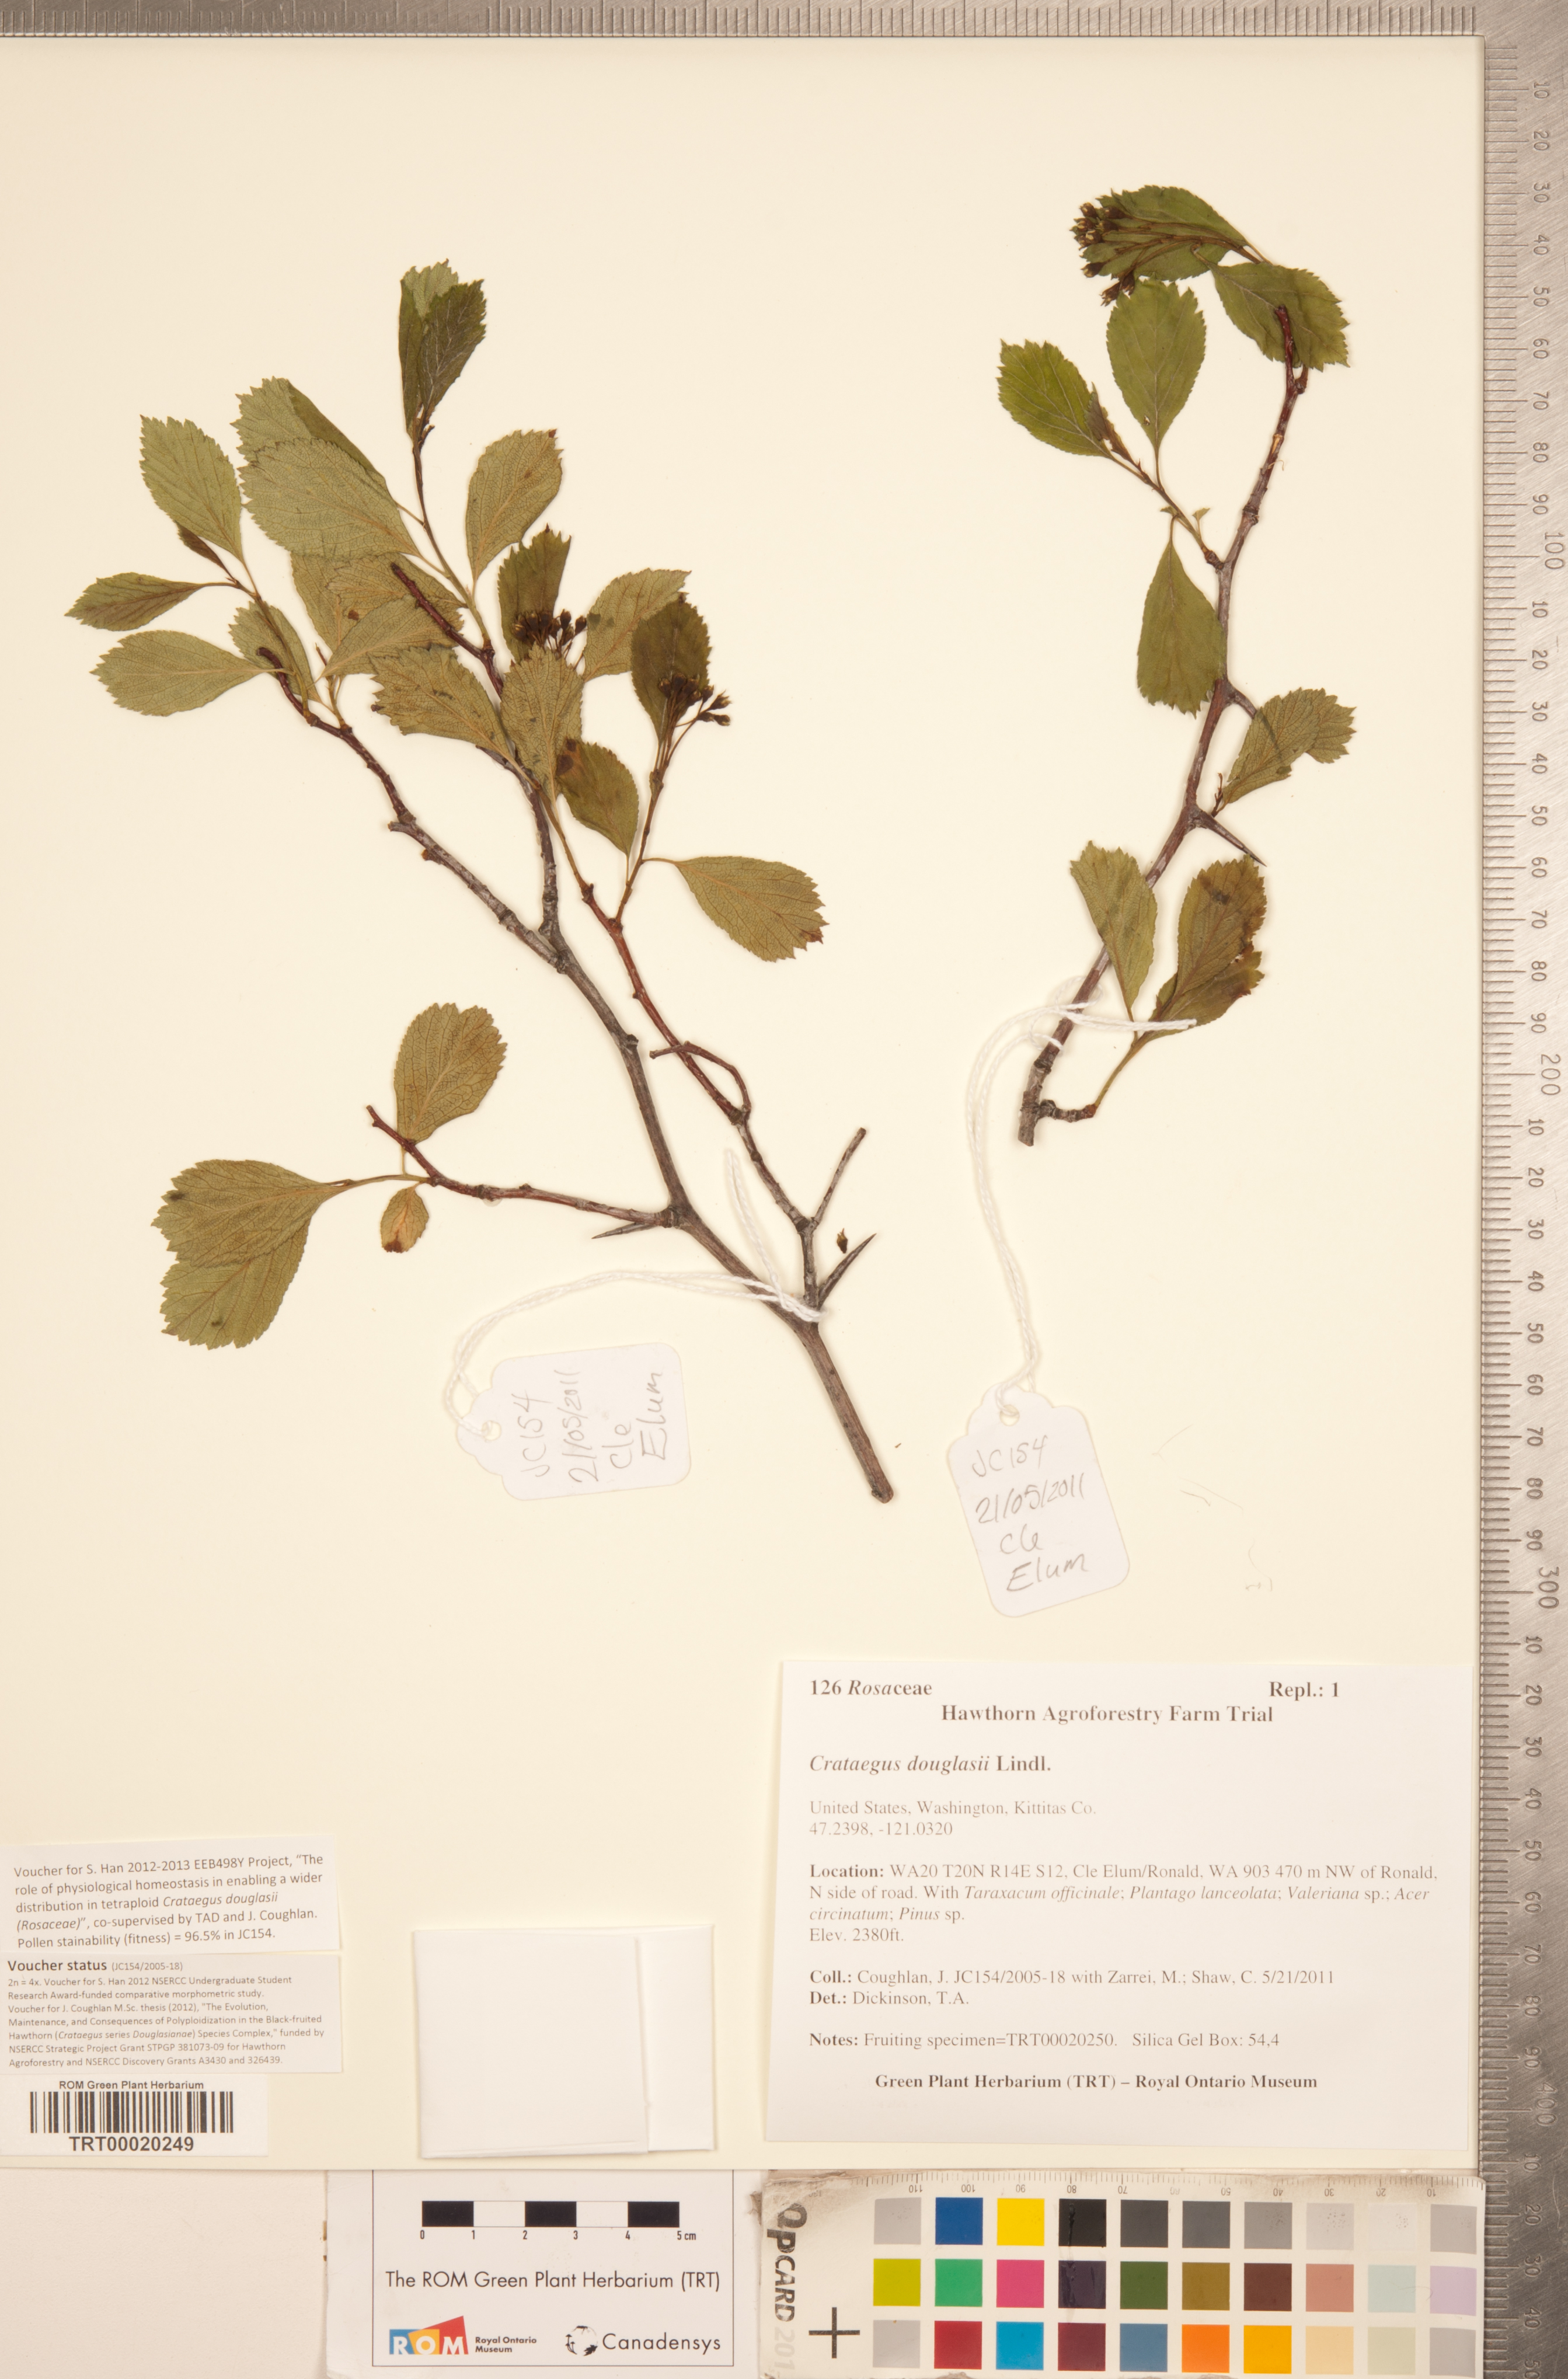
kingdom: Plantae
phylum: Tracheophyta
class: Magnoliopsida
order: Rosales
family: Rosaceae
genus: Crataegus
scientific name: Crataegus douglasii
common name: Black hawthorn
